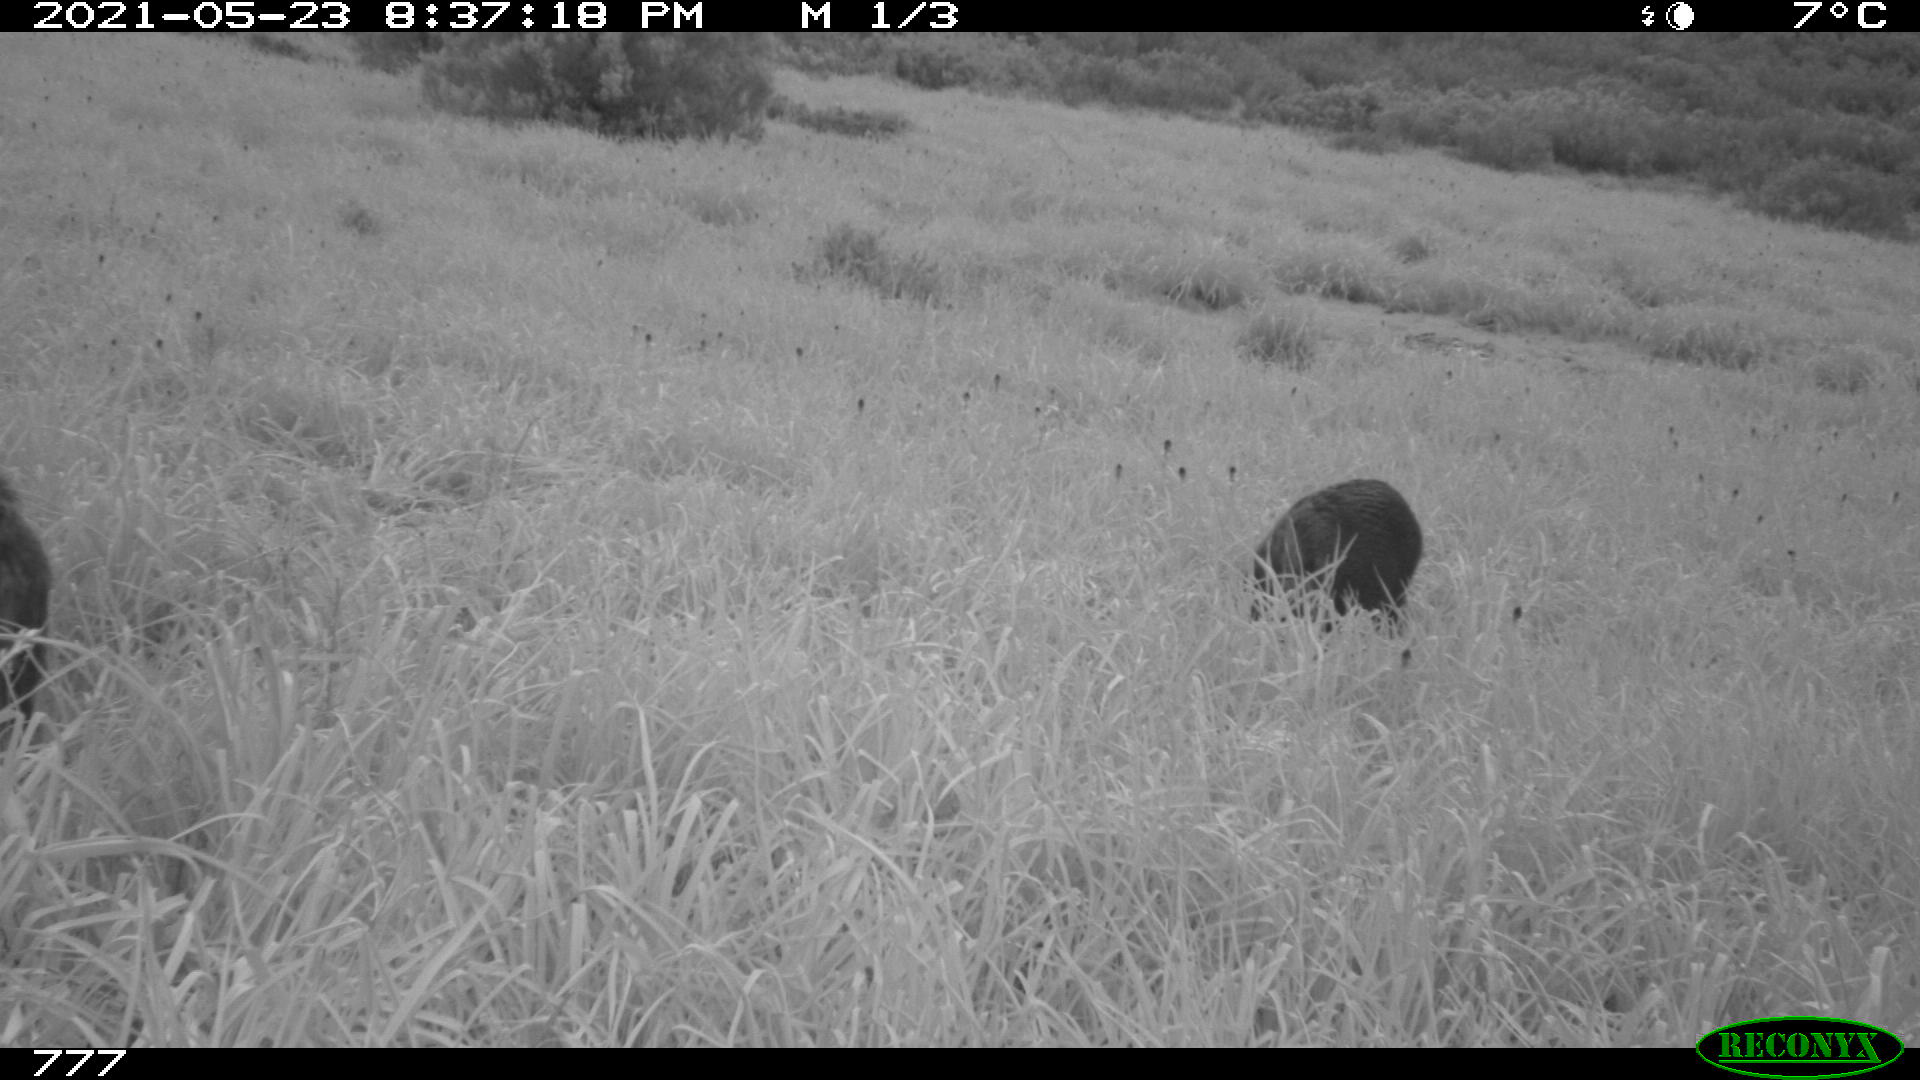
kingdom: Animalia
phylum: Chordata
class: Mammalia
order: Artiodactyla
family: Suidae
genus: Sus
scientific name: Sus scrofa
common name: Wild boar
